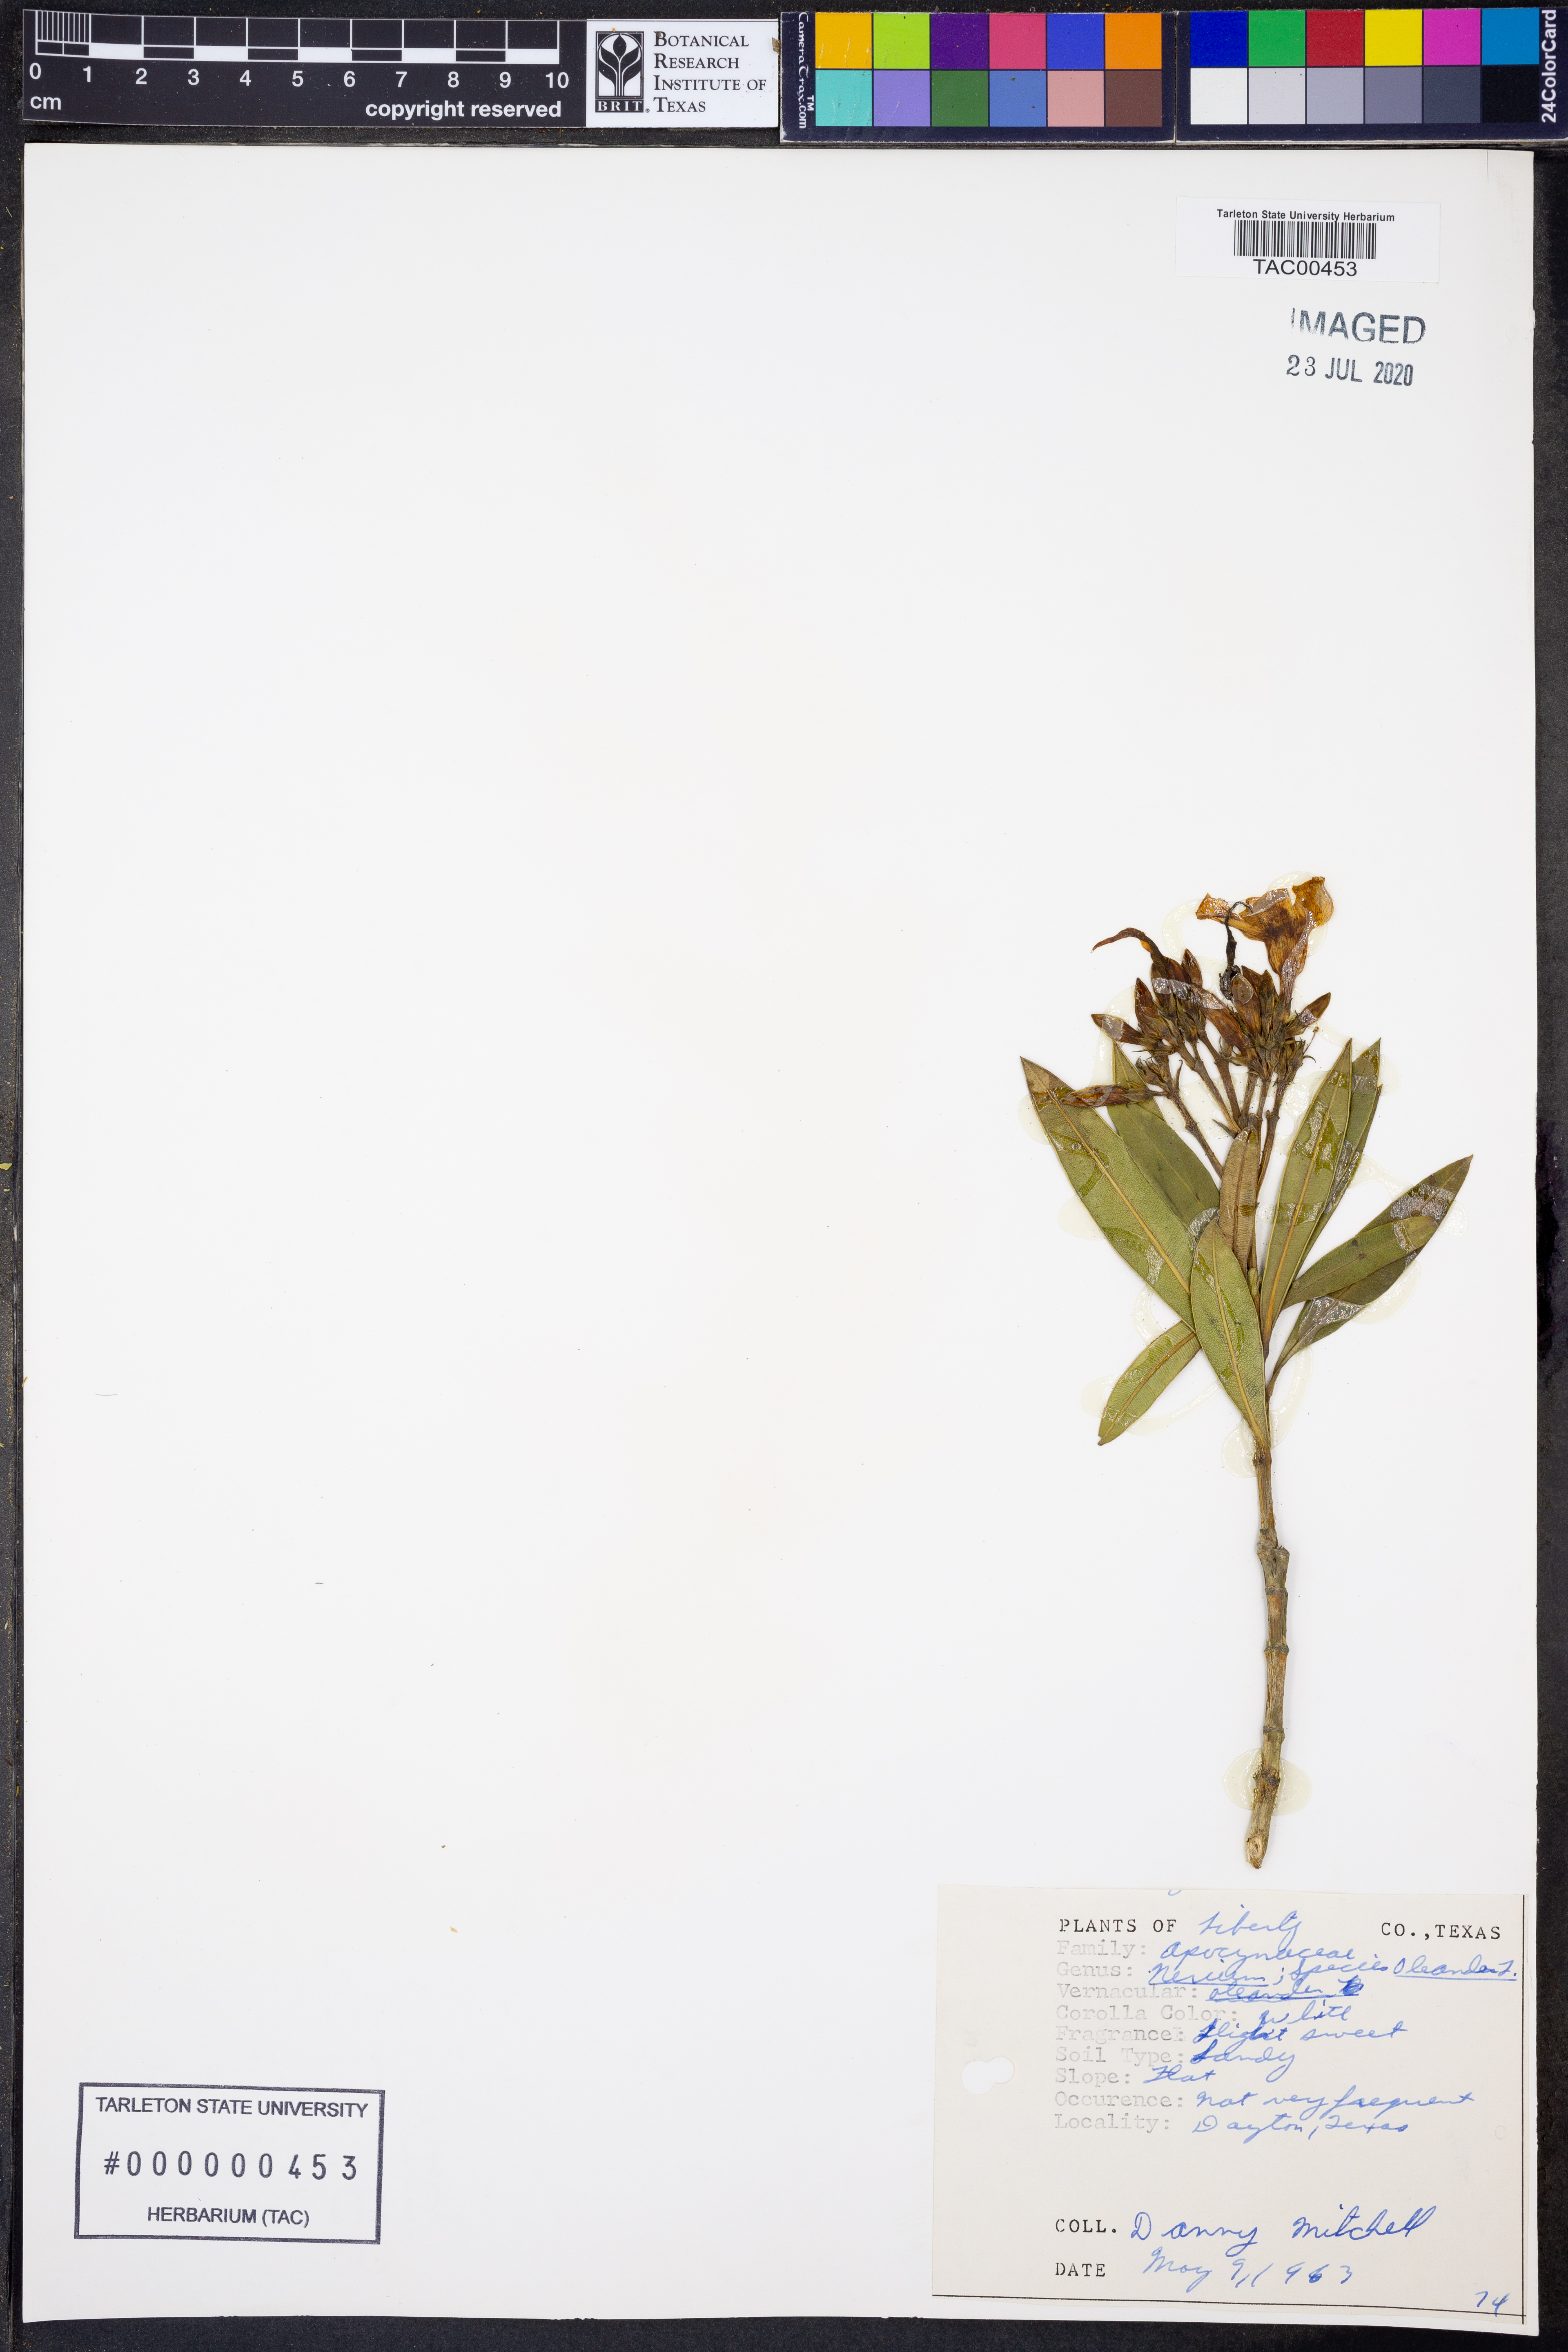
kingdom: Plantae
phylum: Tracheophyta
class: Magnoliopsida
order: Gentianales
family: Apocynaceae
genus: Nerium
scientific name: Nerium oleander
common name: Oleander
